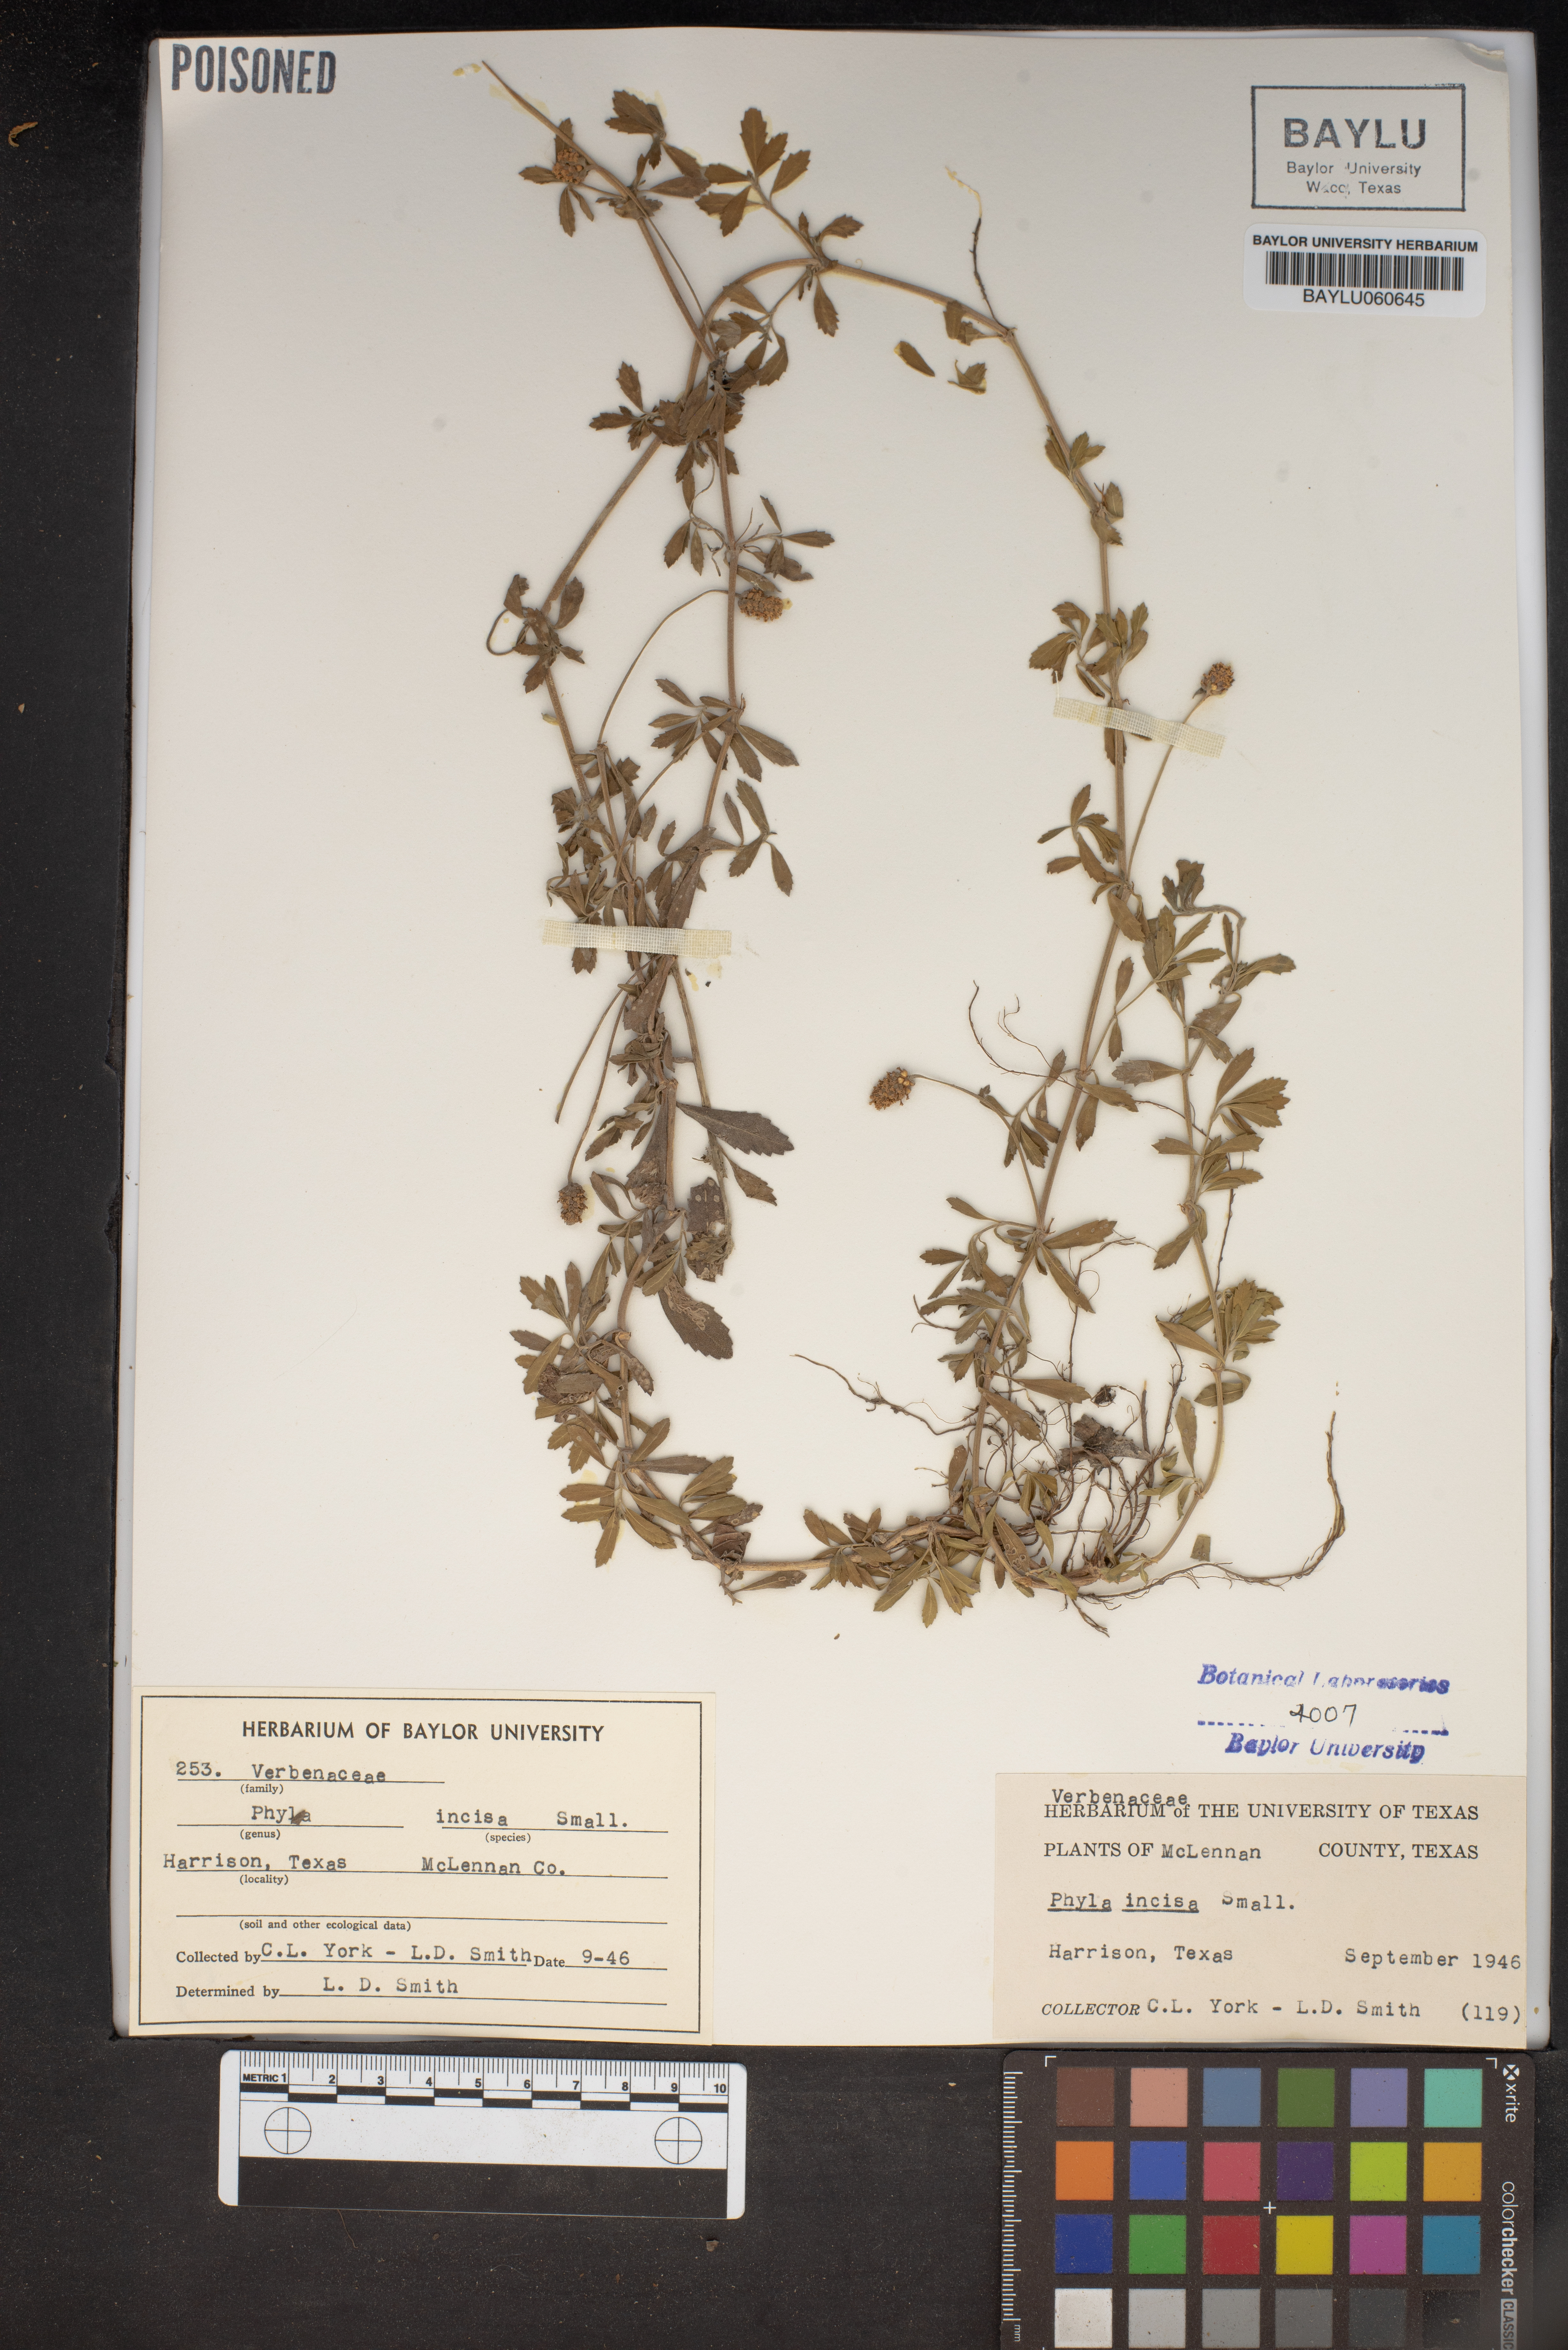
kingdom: Plantae
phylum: Tracheophyta
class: Magnoliopsida
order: Lamiales
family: Verbenaceae
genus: Phyla
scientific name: Phyla nodiflora
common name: Frogfruit
